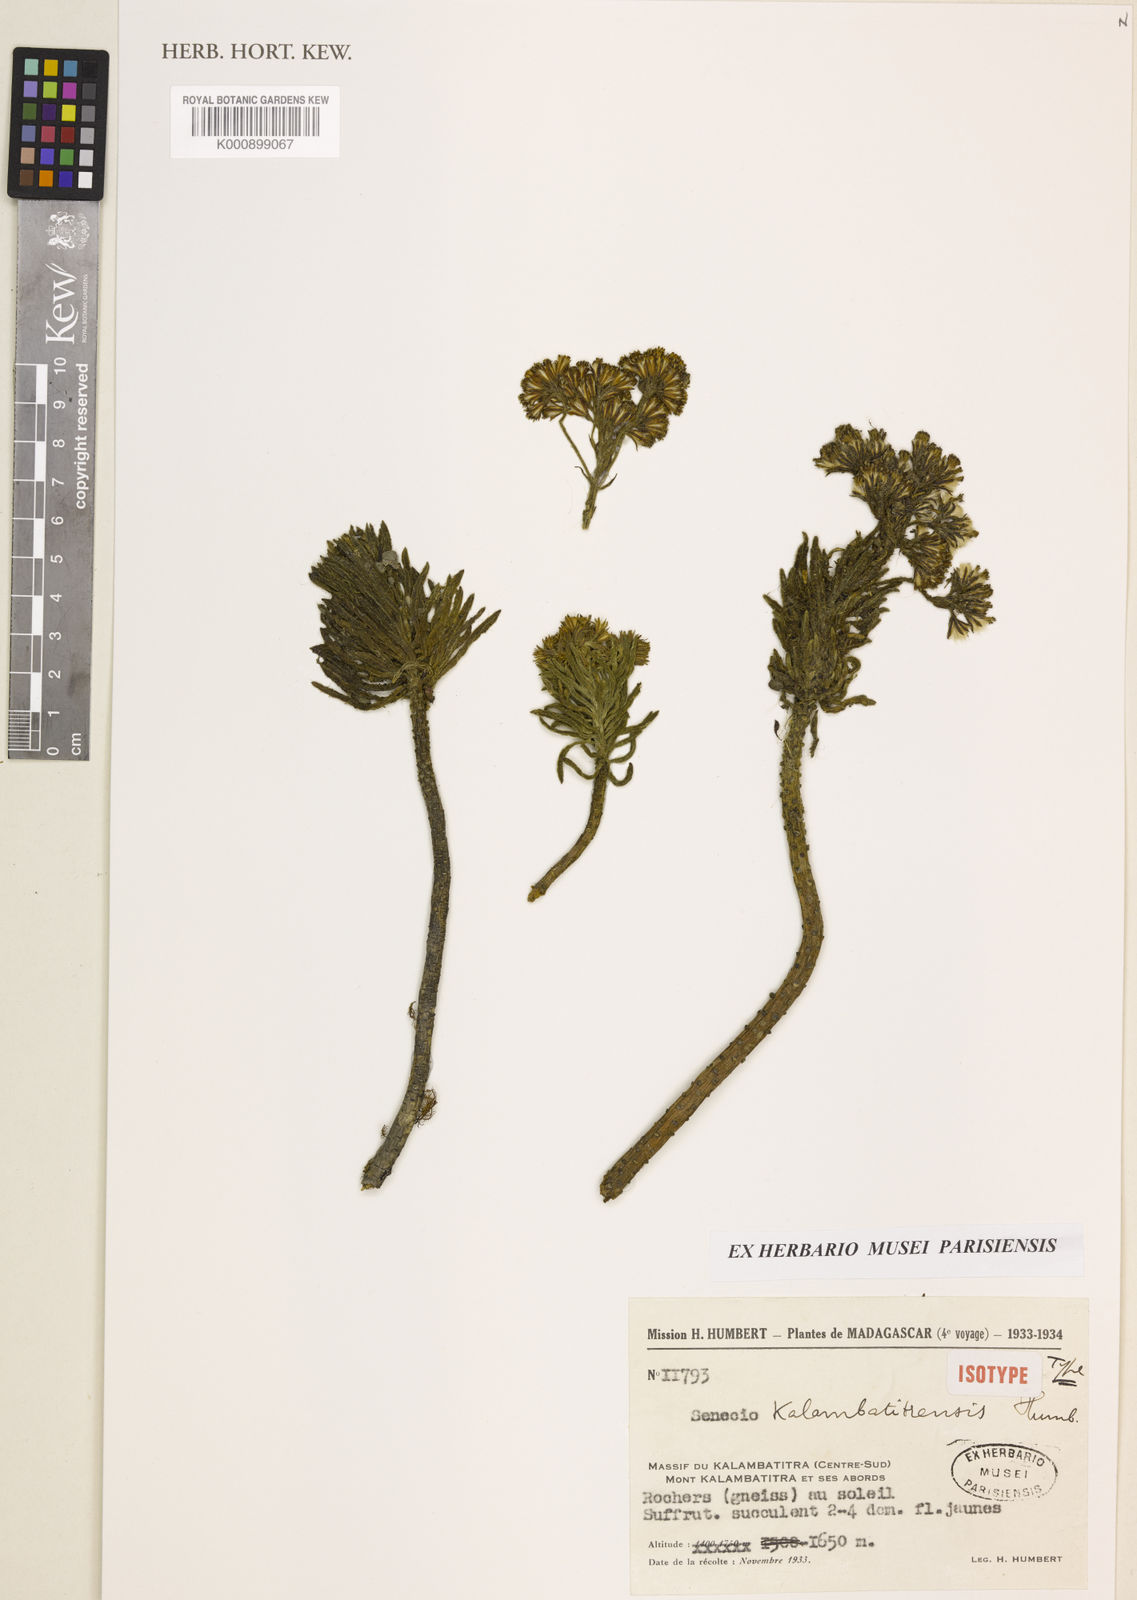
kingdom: Plantae
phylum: Tracheophyta
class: Magnoliopsida
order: Asterales
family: Asteraceae
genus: Senecio
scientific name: Senecio kalambatitrensis
